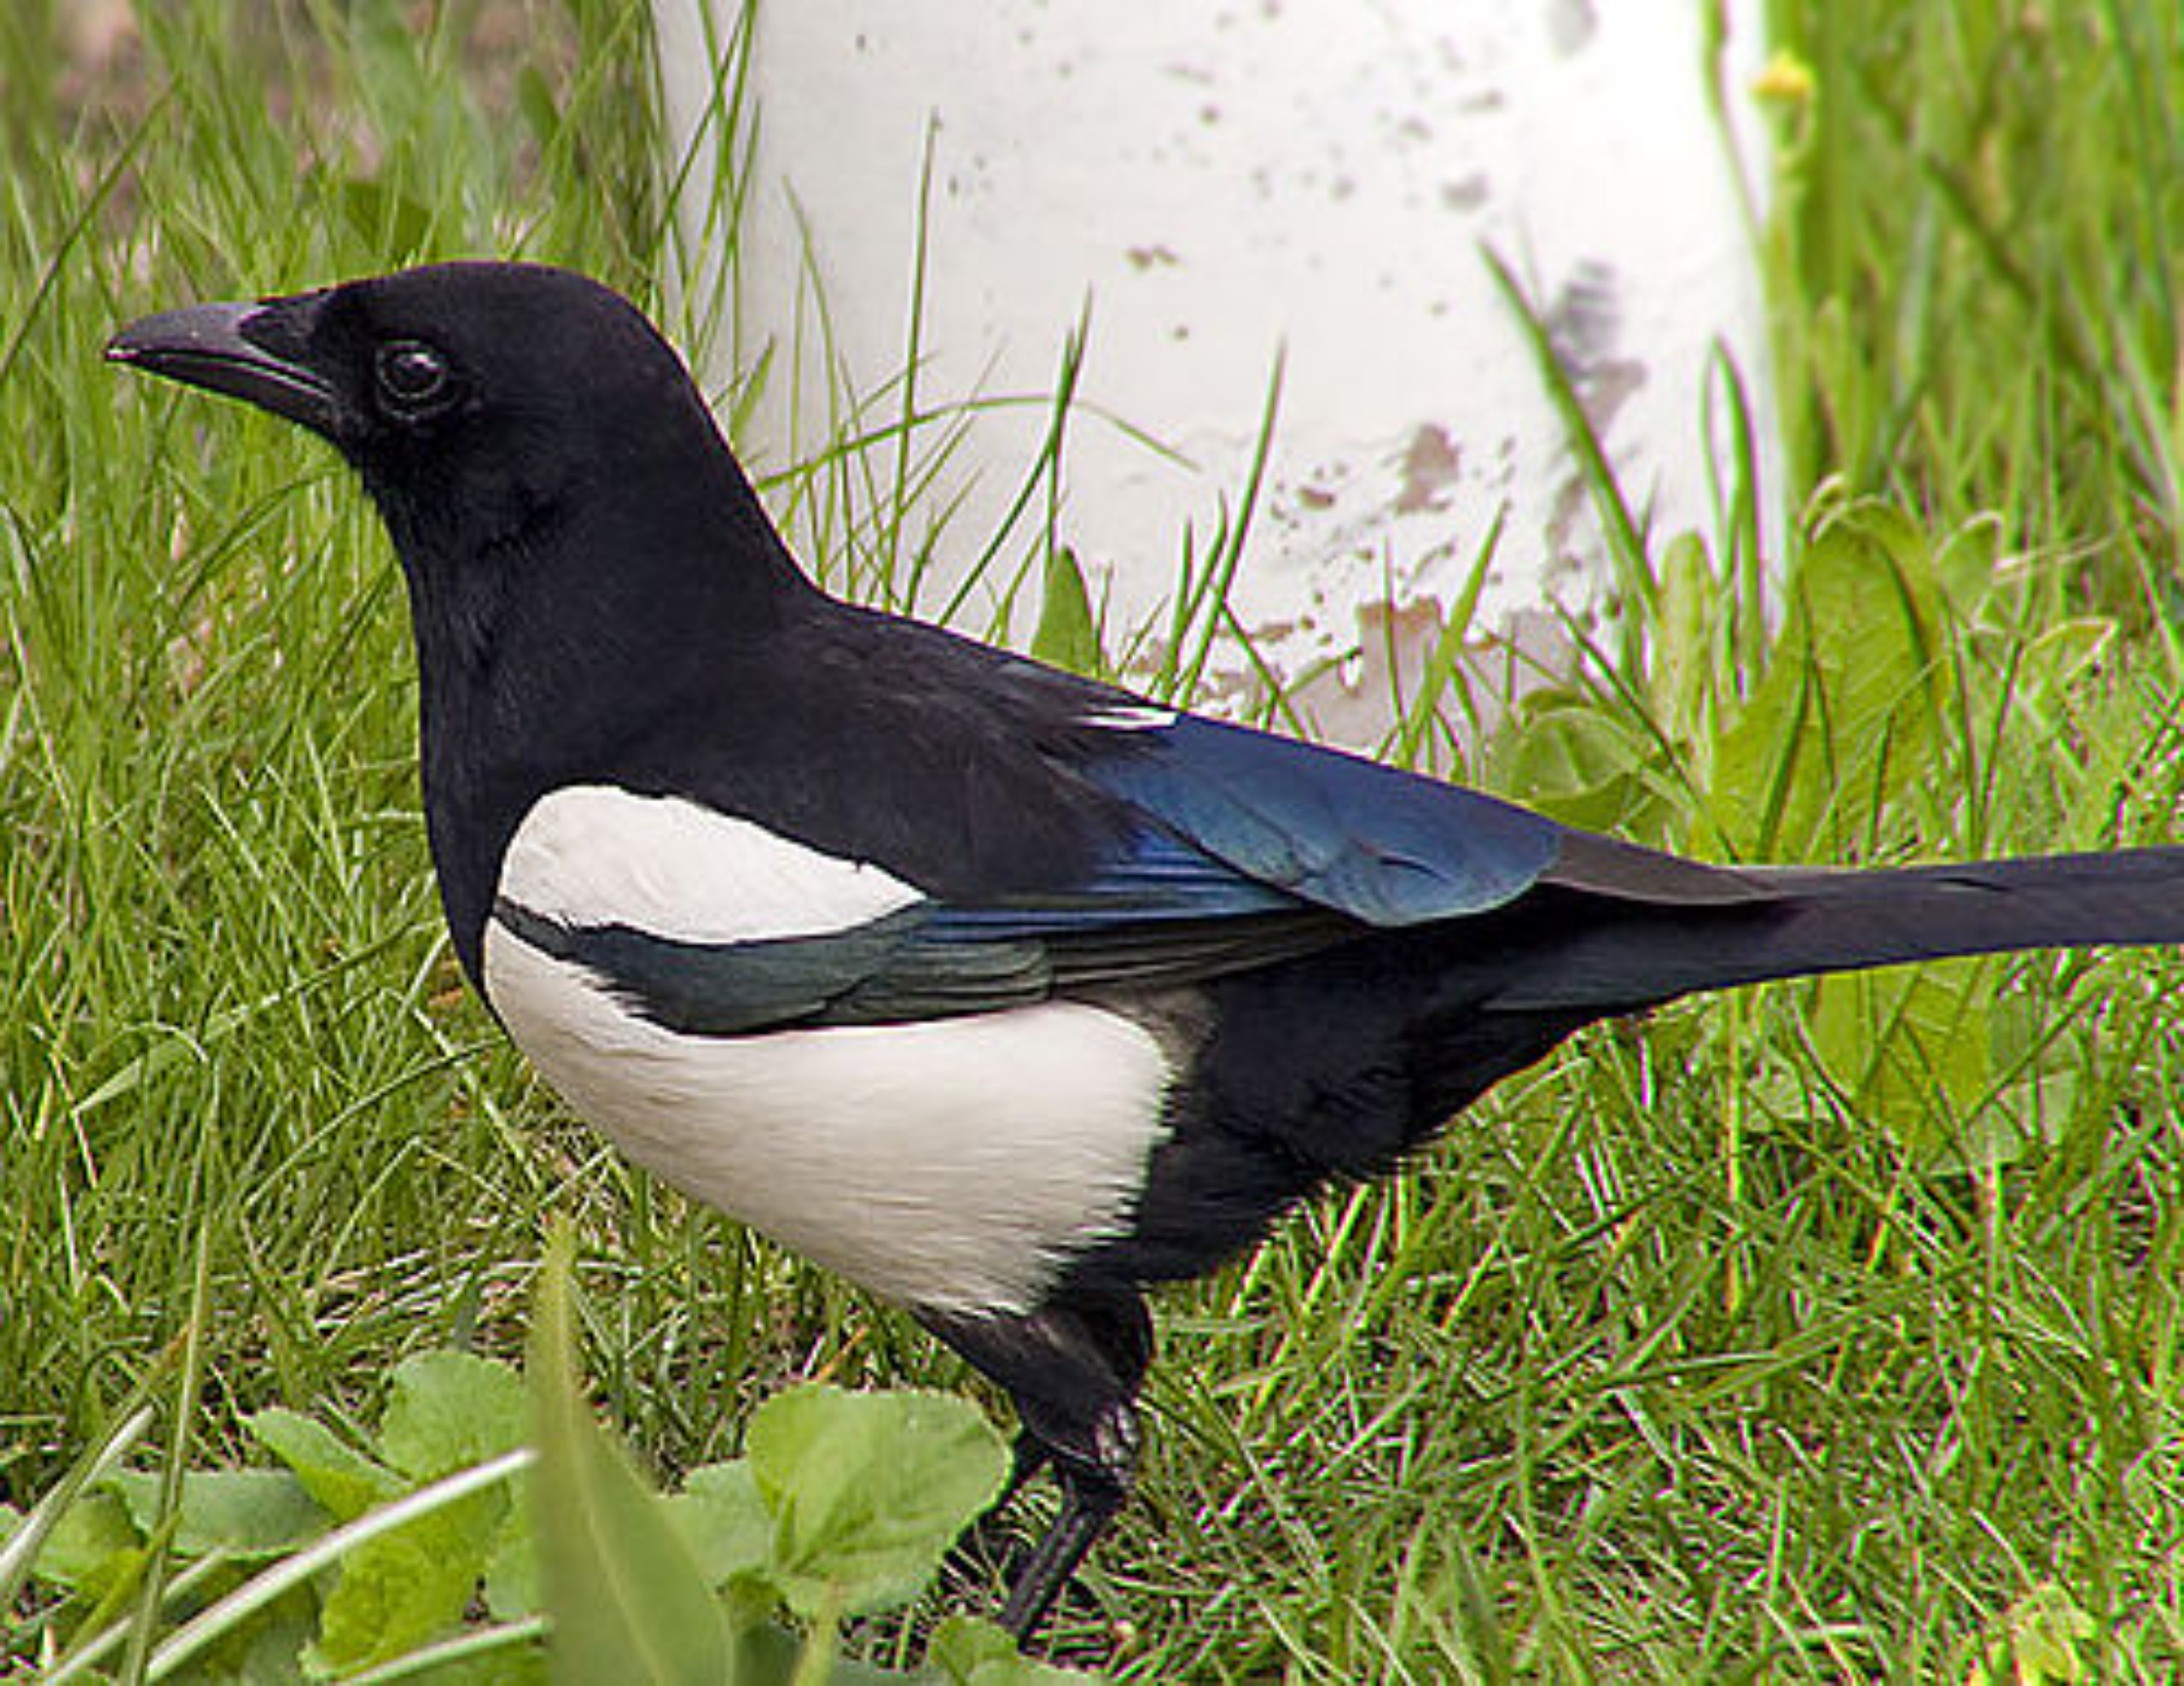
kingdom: Animalia
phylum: Chordata
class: Aves
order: Passeriformes
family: Corvidae
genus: Pica
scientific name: Pica pica
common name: Husskade
